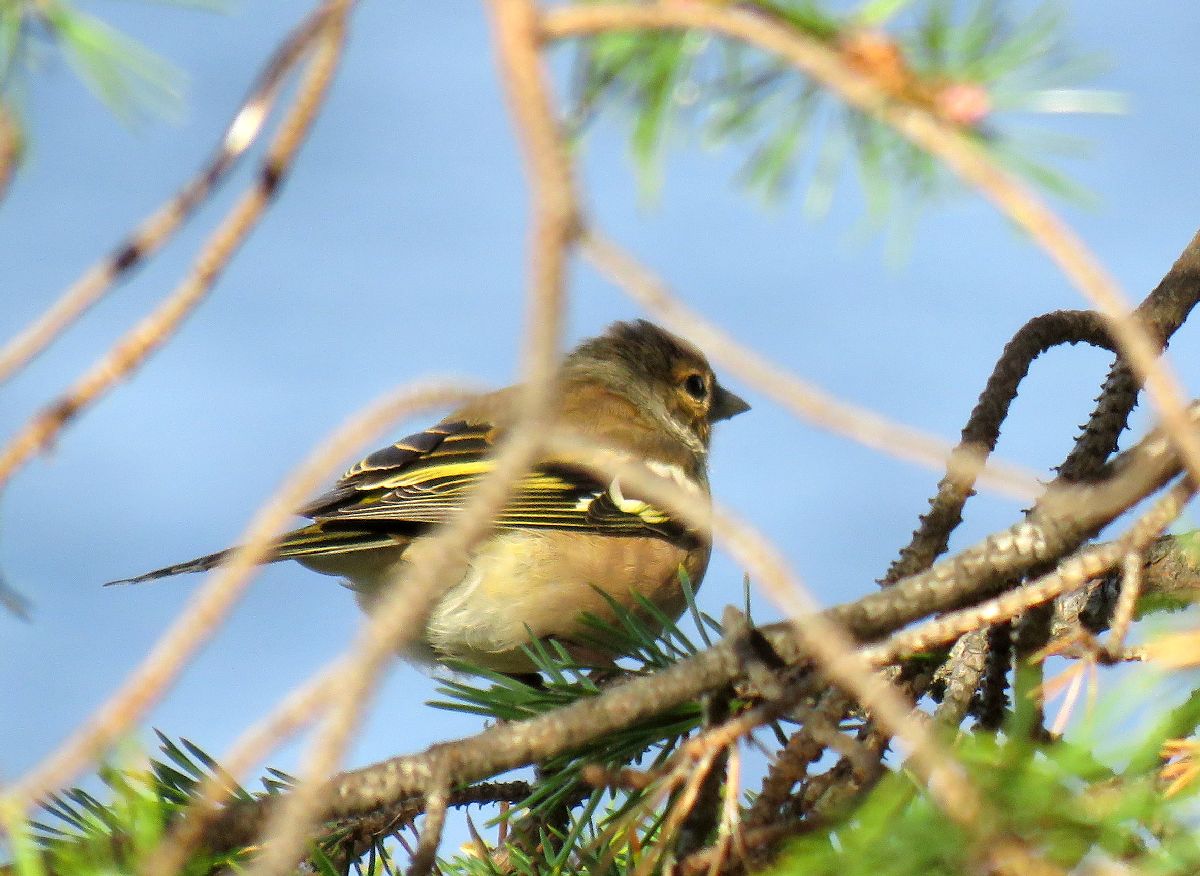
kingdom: Animalia
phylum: Chordata
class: Aves
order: Passeriformes
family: Fringillidae
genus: Fringilla
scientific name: Fringilla coelebs
